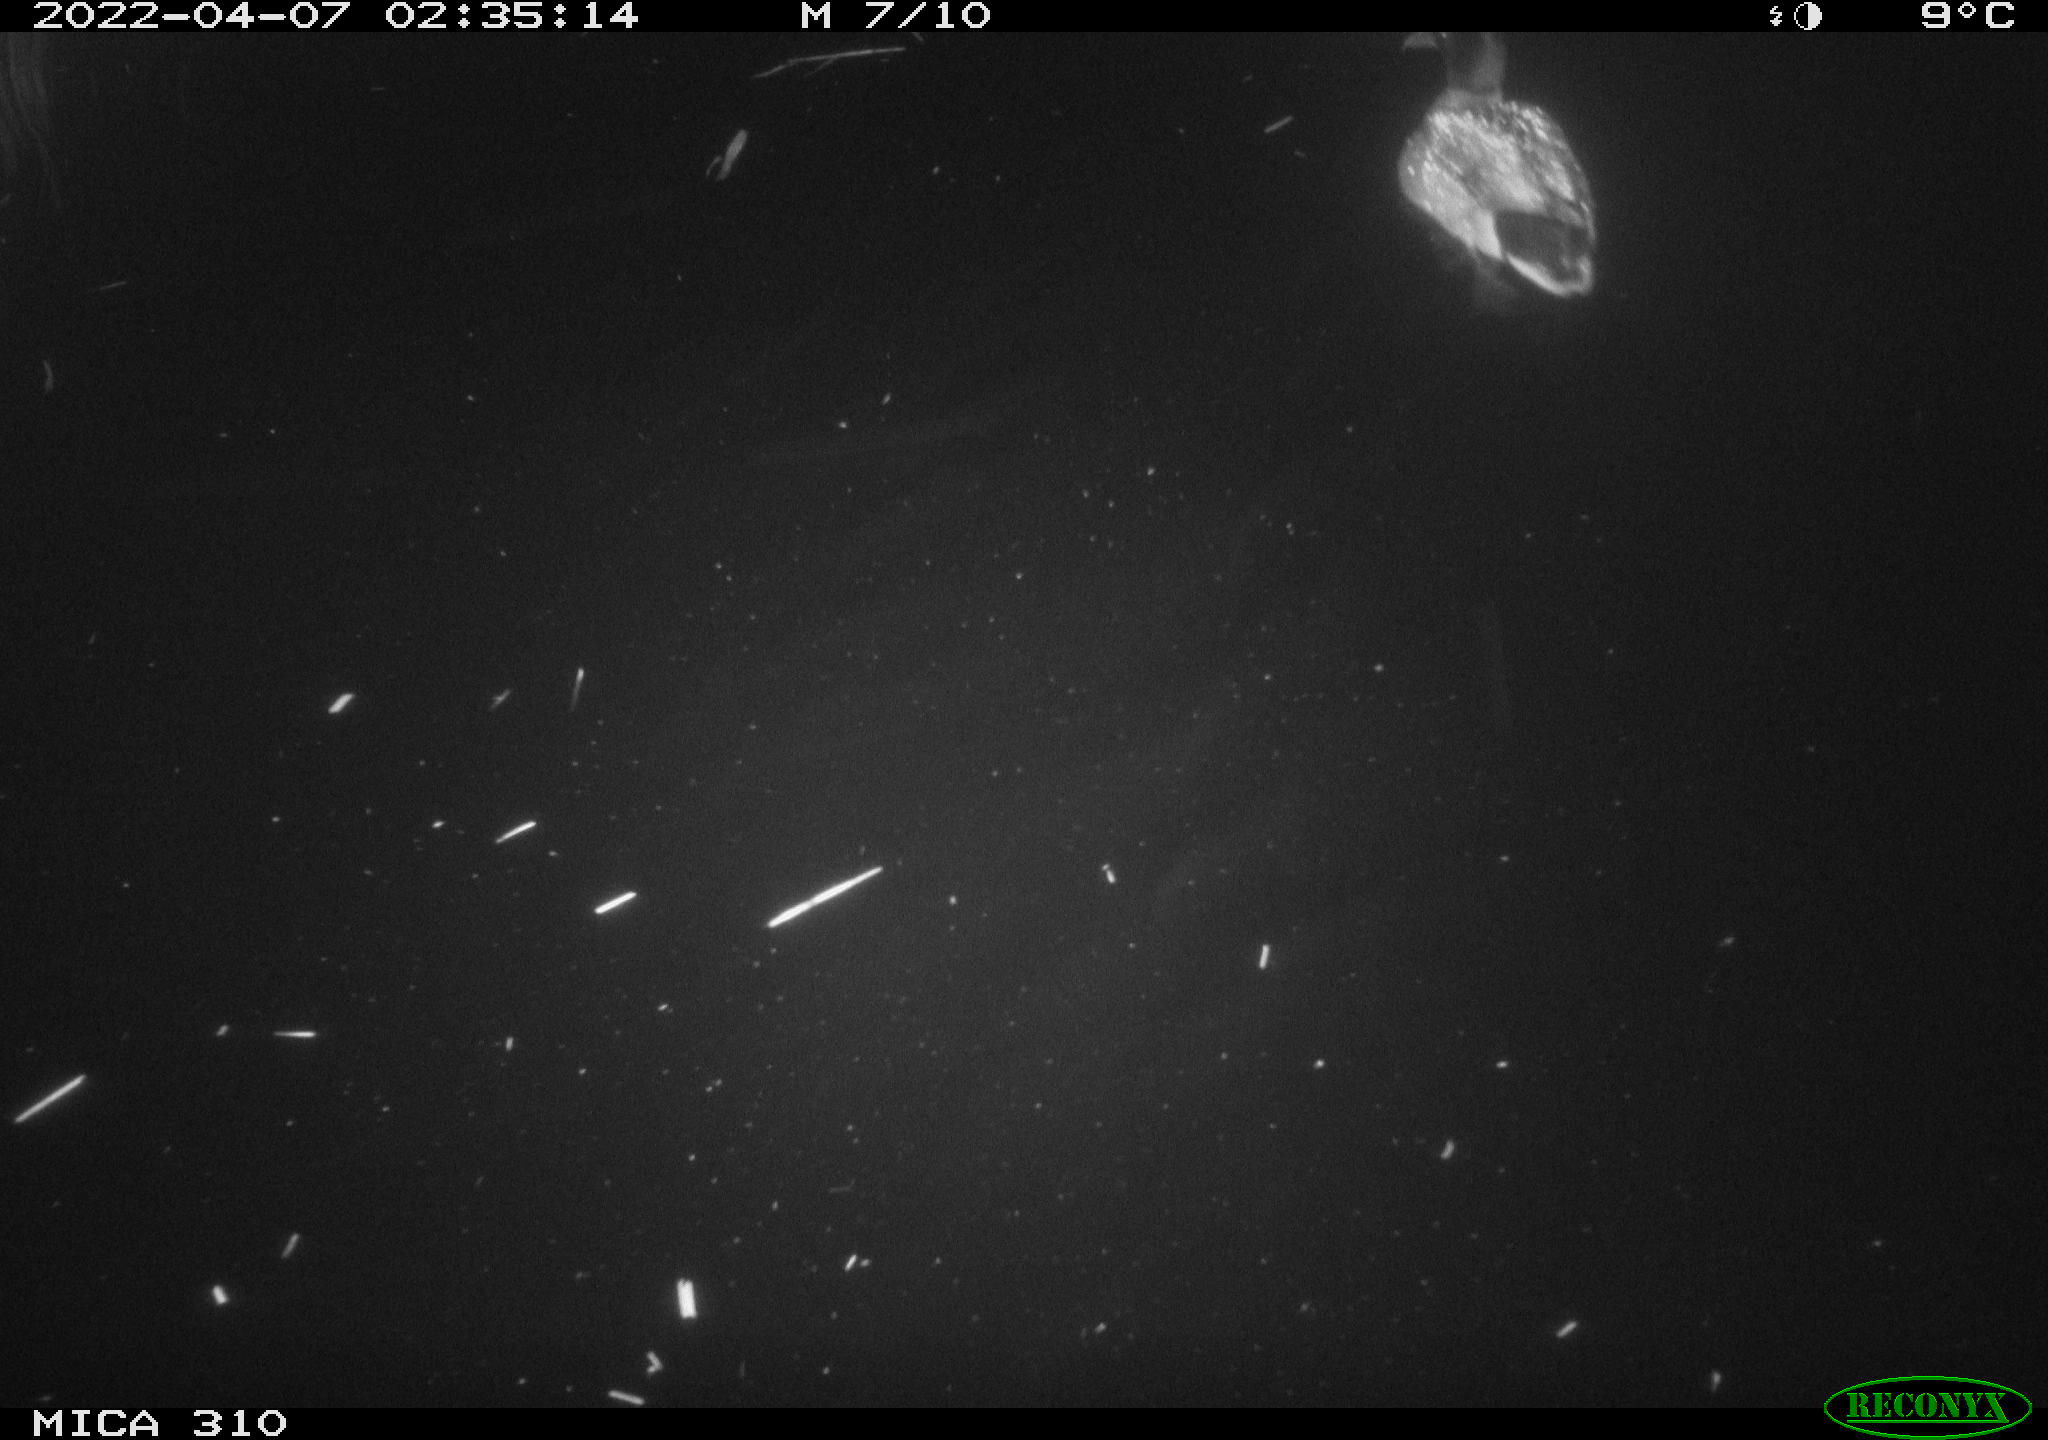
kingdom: Animalia
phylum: Chordata
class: Aves
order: Anseriformes
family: Anatidae
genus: Anas
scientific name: Anas platyrhynchos
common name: Mallard
